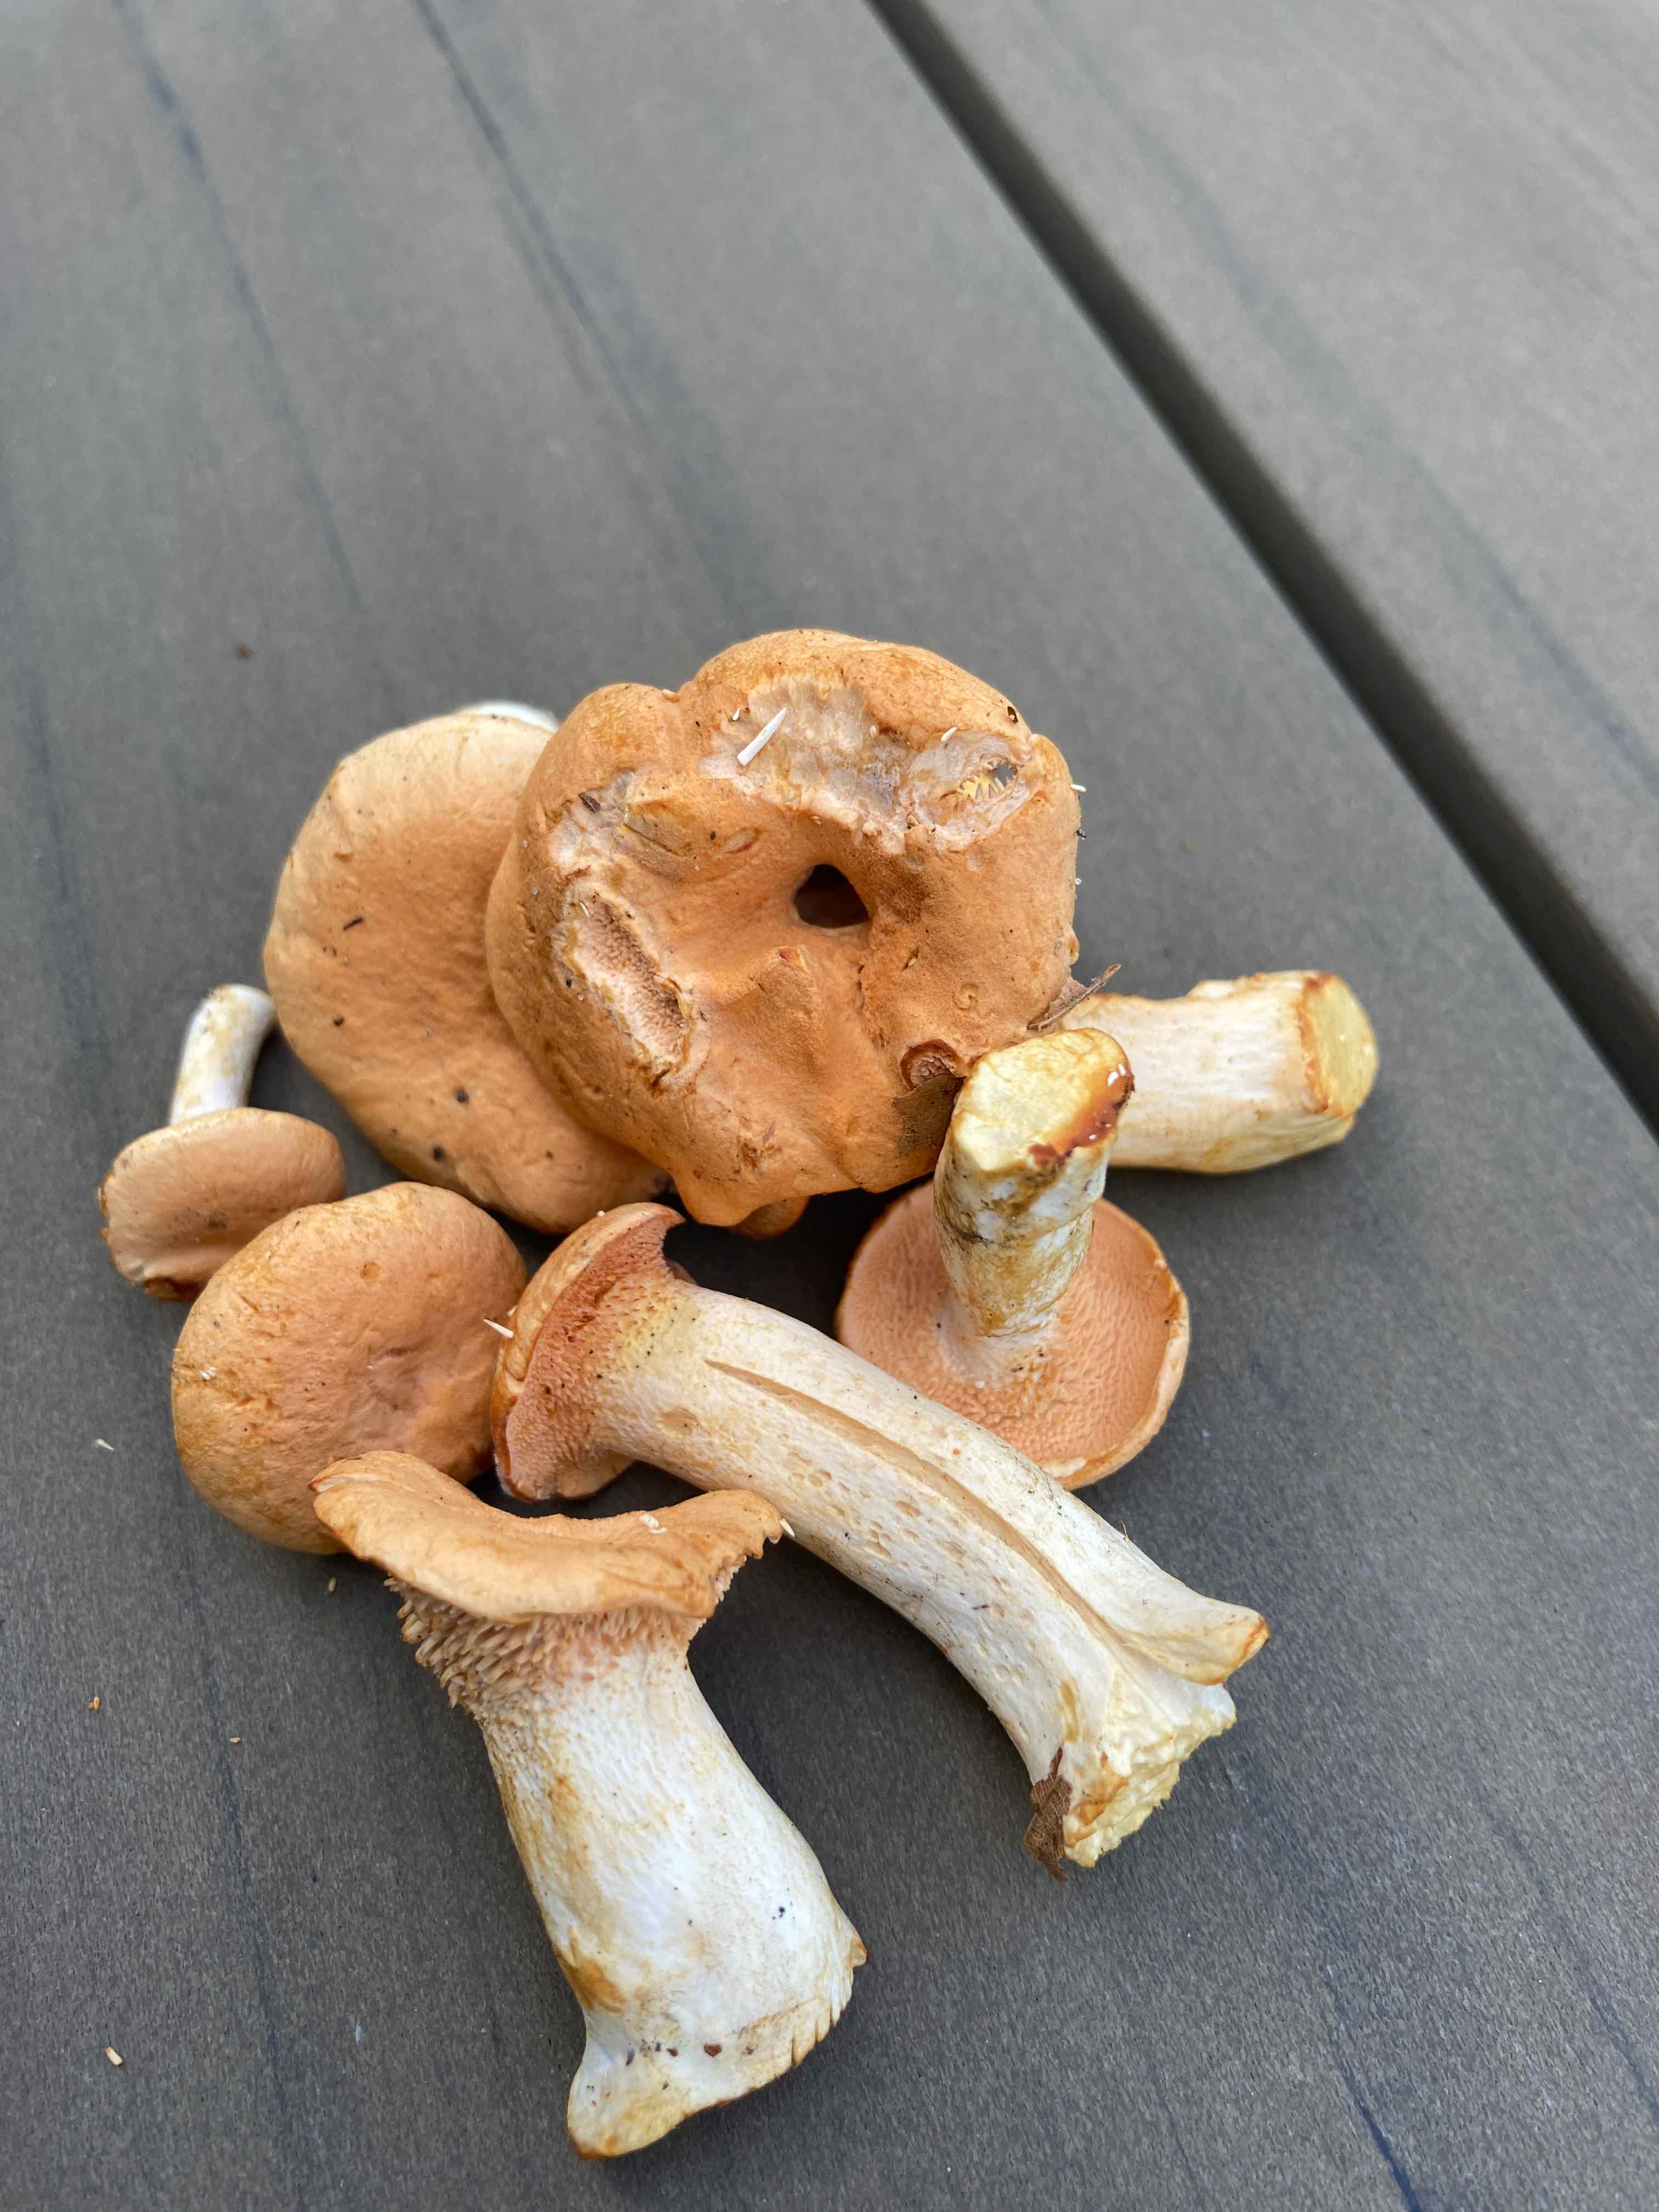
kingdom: Fungi
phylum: Basidiomycota
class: Agaricomycetes
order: Cantharellales
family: Hydnaceae
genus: Hydnum
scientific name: Hydnum
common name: pigsvamp
